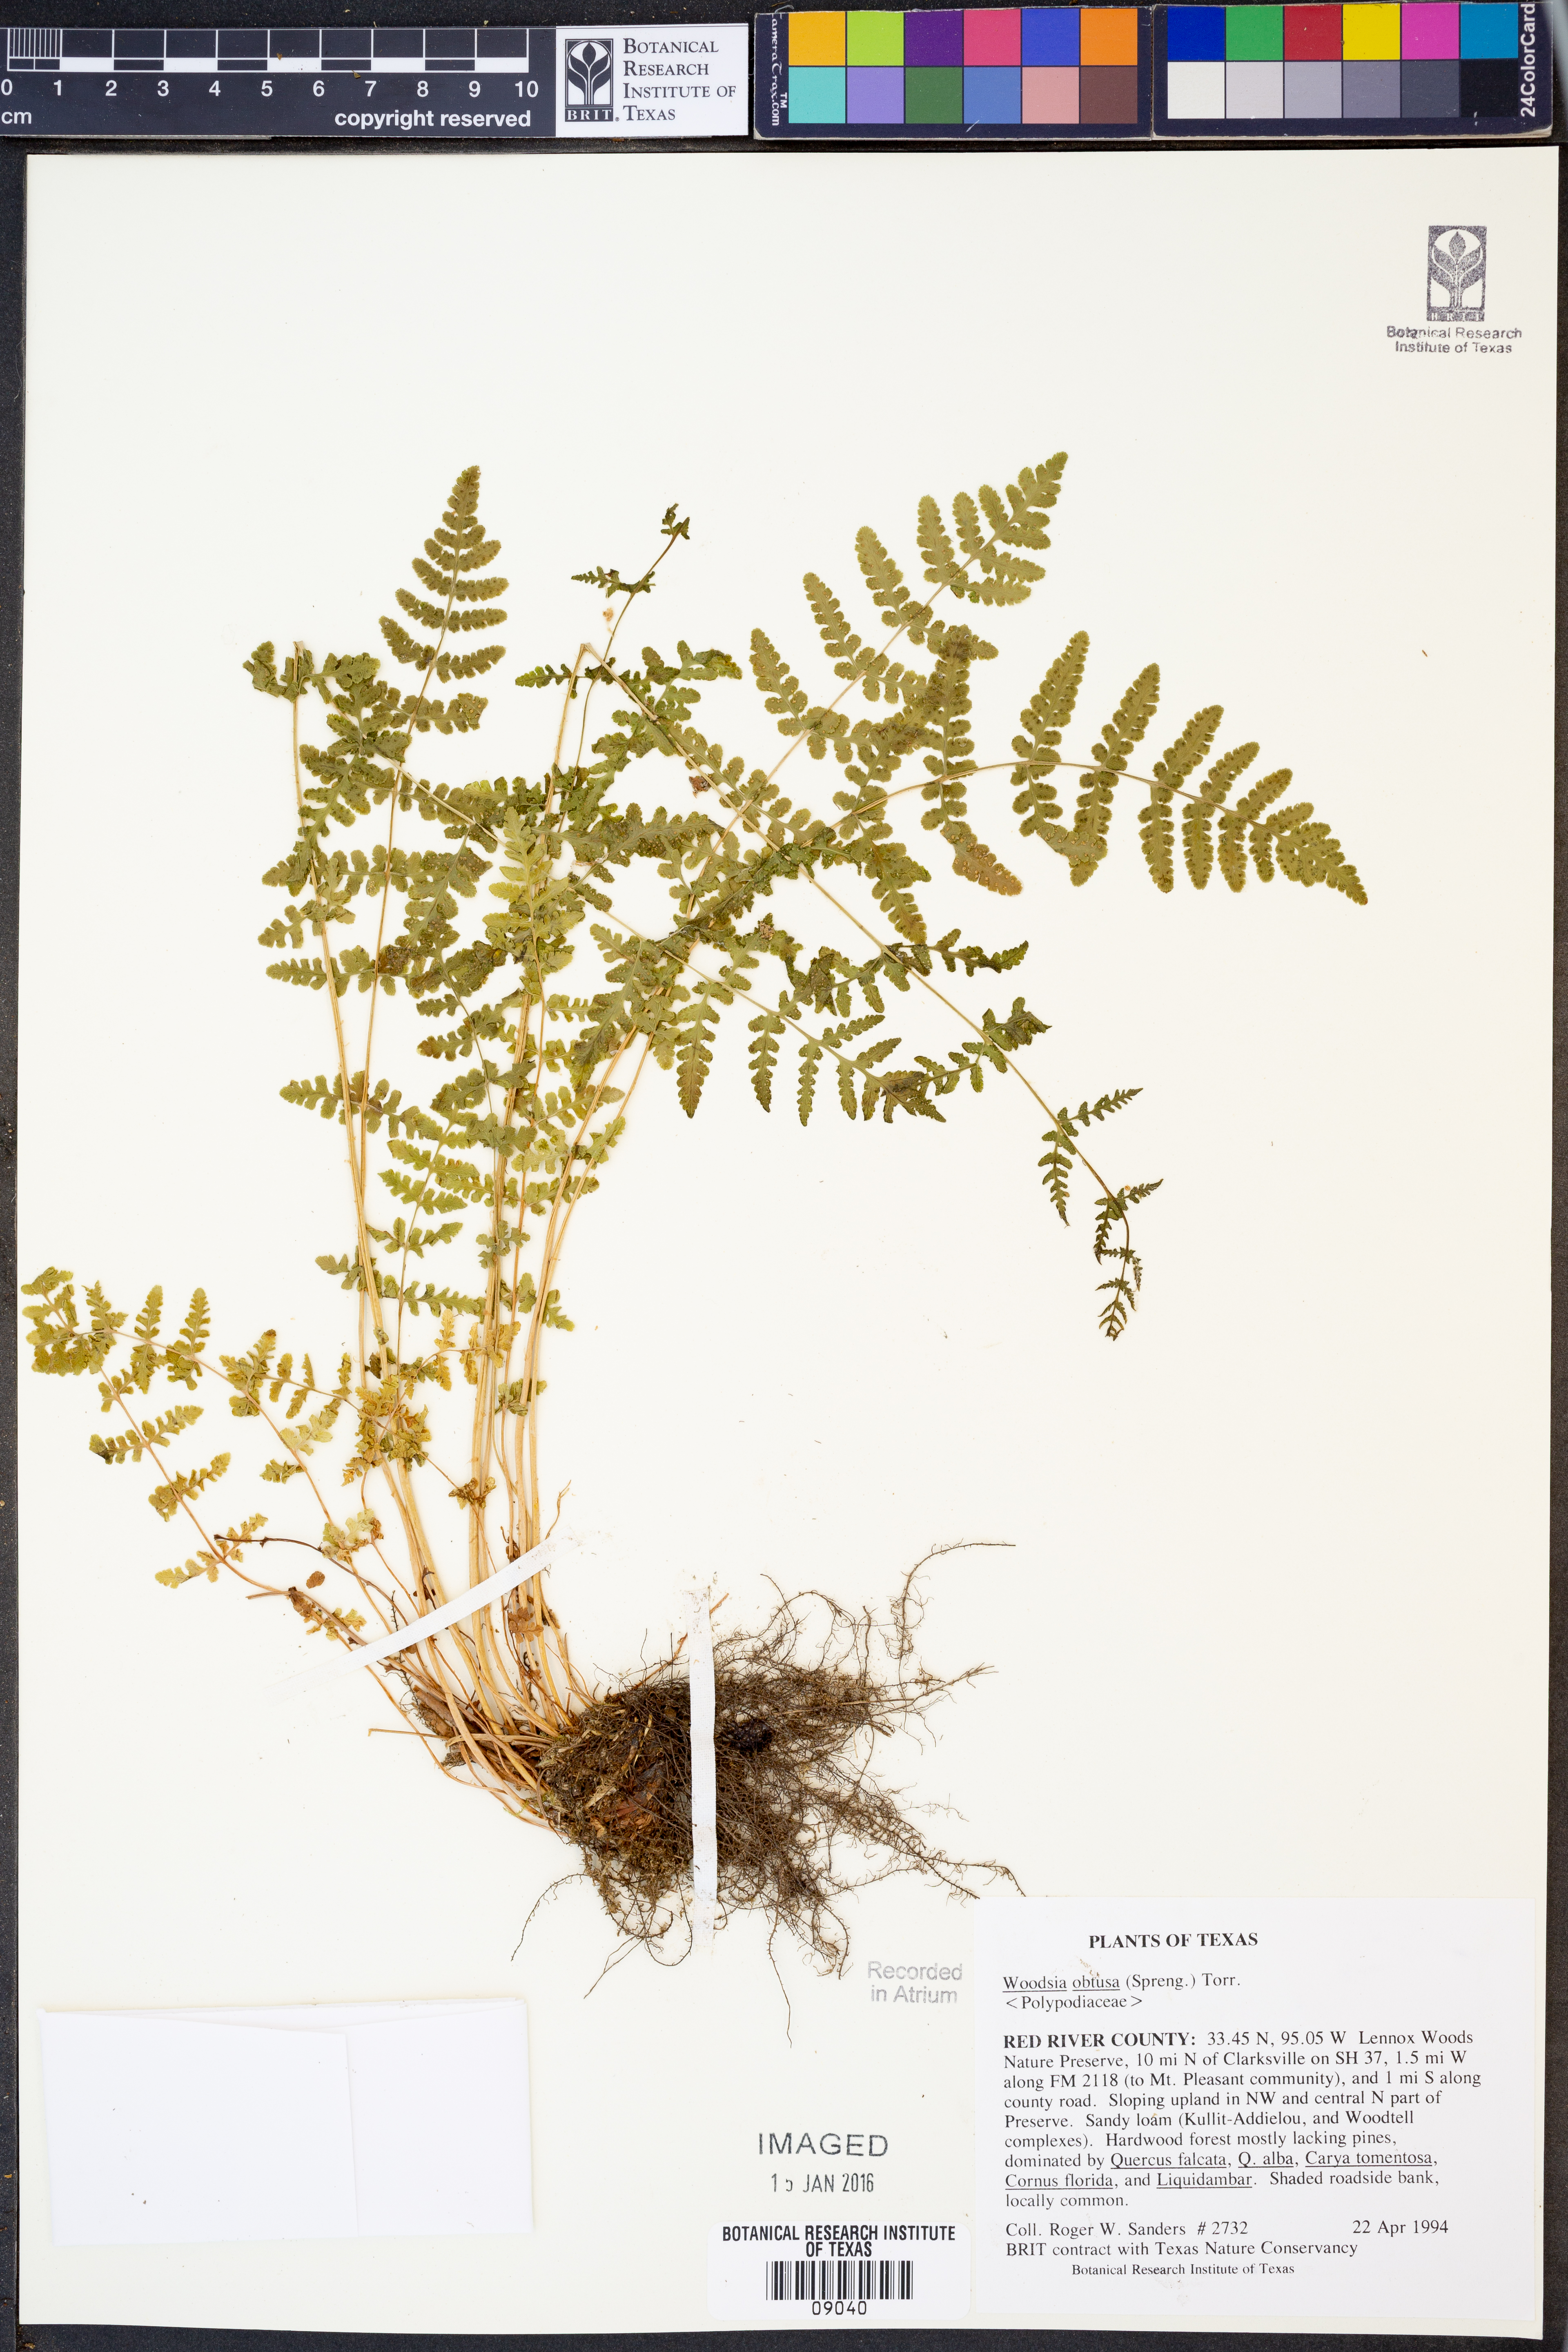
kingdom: Plantae
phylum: Tracheophyta
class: Polypodiopsida
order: Polypodiales
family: Woodsiaceae
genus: Physematium
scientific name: Physematium obtusum
